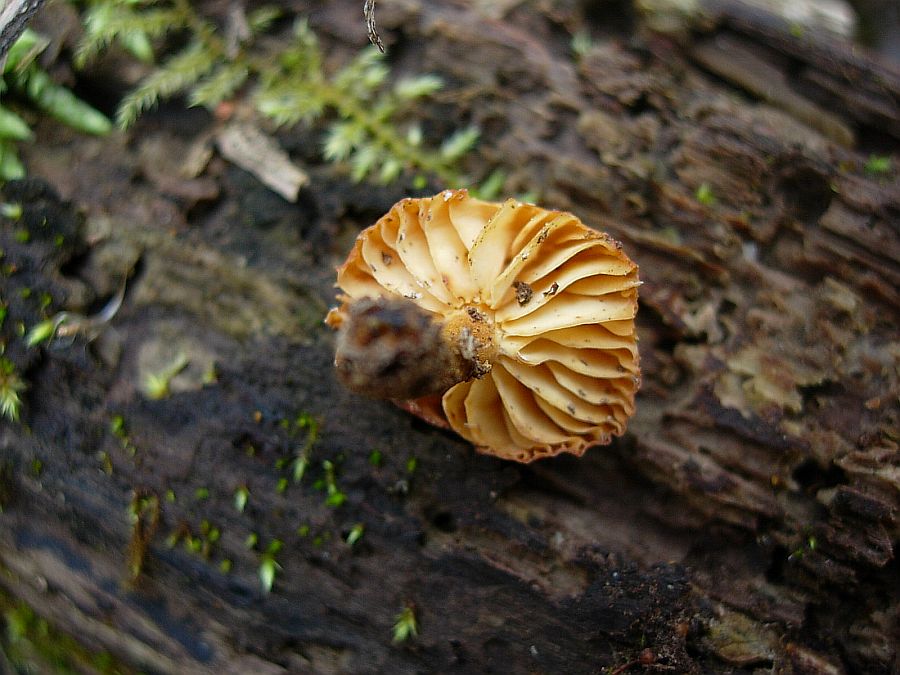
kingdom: Fungi
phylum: Basidiomycota
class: Agaricomycetes
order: Agaricales
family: Physalacriaceae
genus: Flammulina
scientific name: Flammulina elastica
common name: pile-fløjlsfod
